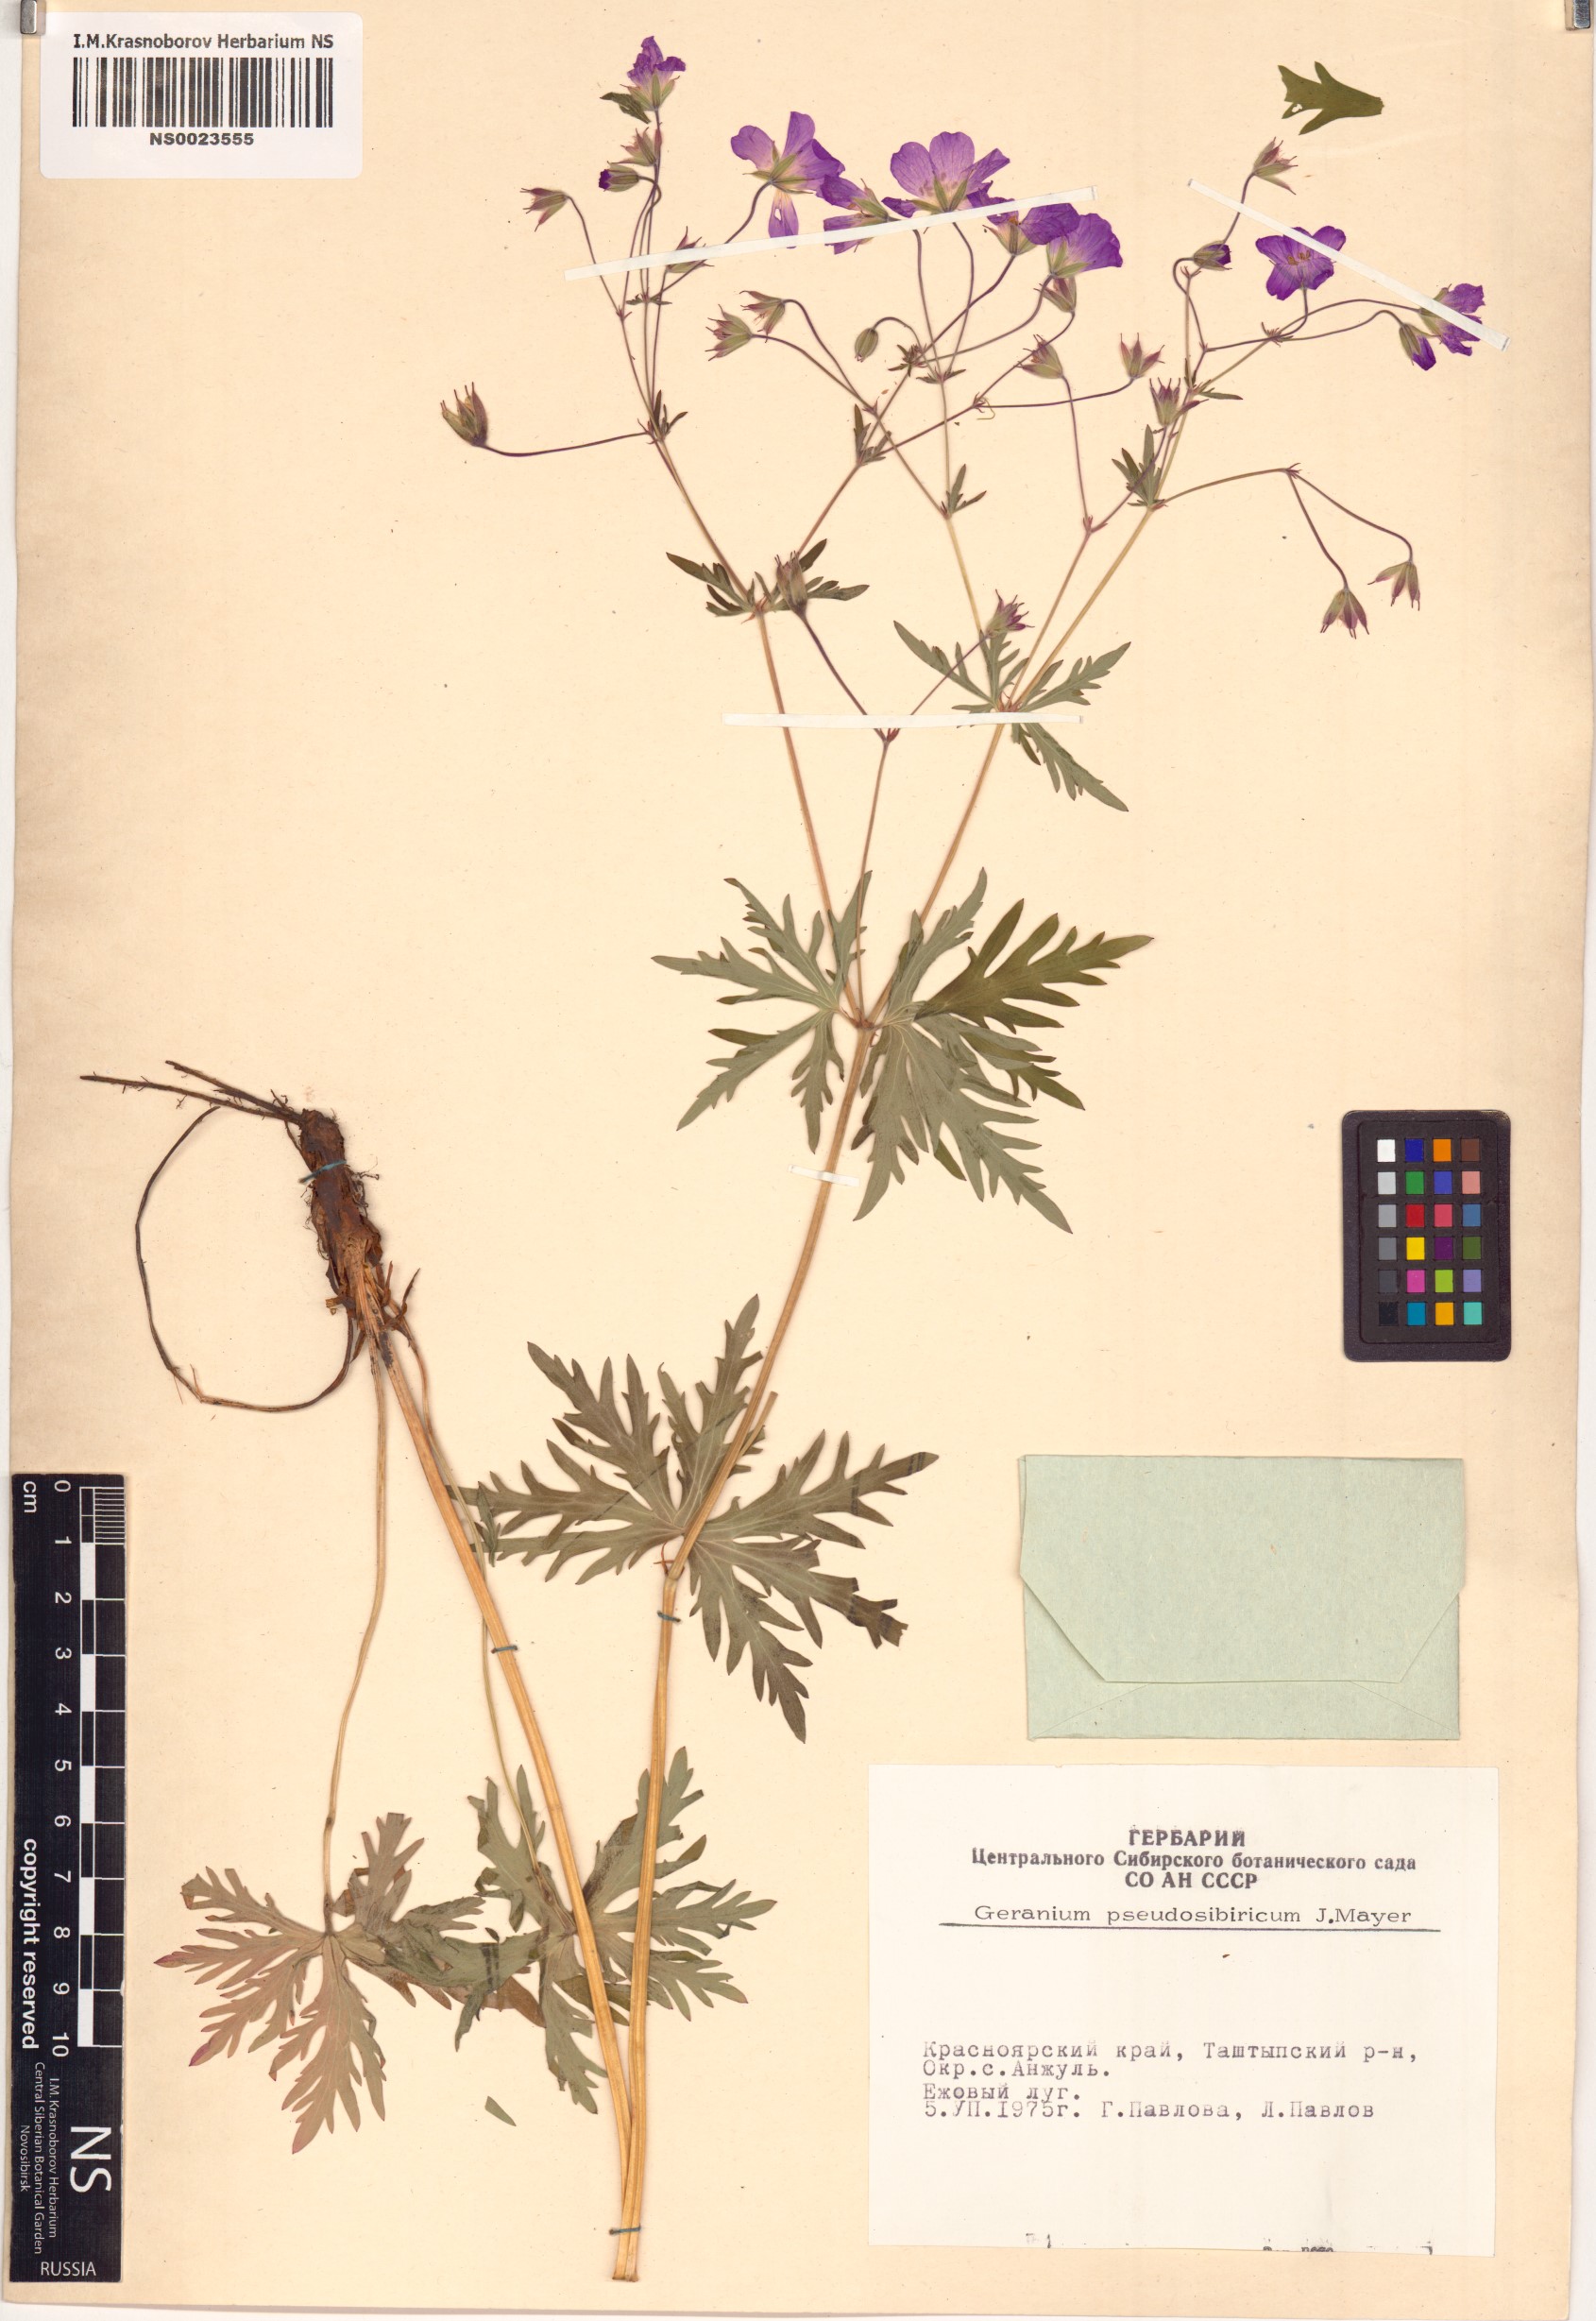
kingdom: Plantae
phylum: Tracheophyta
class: Magnoliopsida
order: Geraniales
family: Geraniaceae
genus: Geranium
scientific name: Geranium pseudosibiricum
